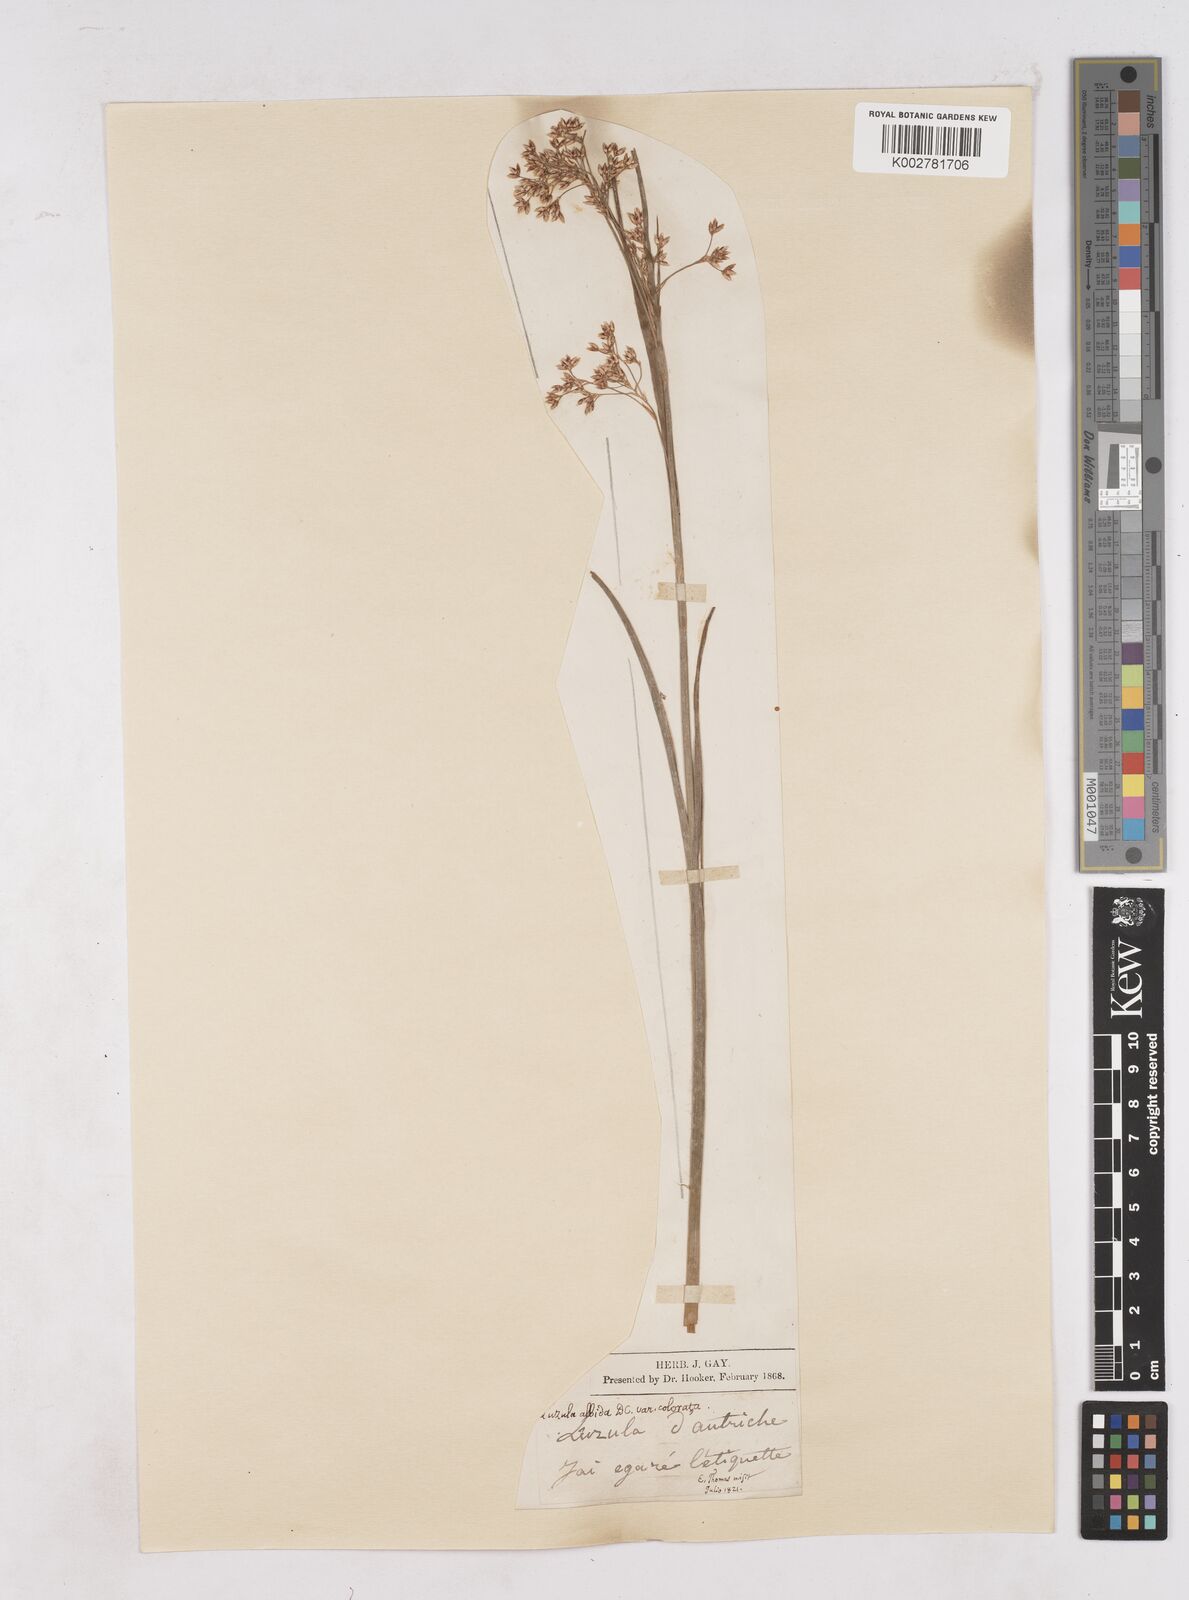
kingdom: Plantae
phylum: Tracheophyta
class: Liliopsida
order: Poales
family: Juncaceae
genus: Luzula
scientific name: Luzula luzuloides
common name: White wood-rush
